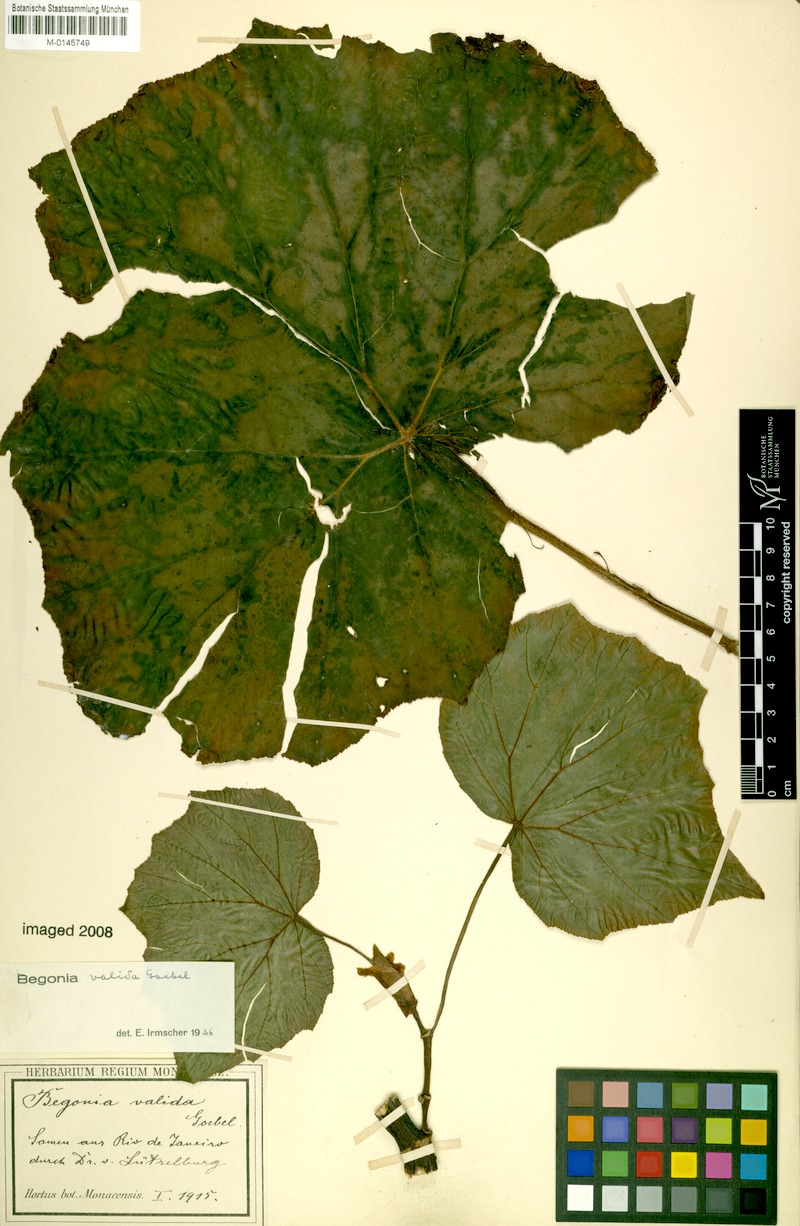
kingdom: Plantae
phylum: Tracheophyta
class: Magnoliopsida
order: Cucurbitales
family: Begoniaceae
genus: Begonia
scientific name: Begonia valida
